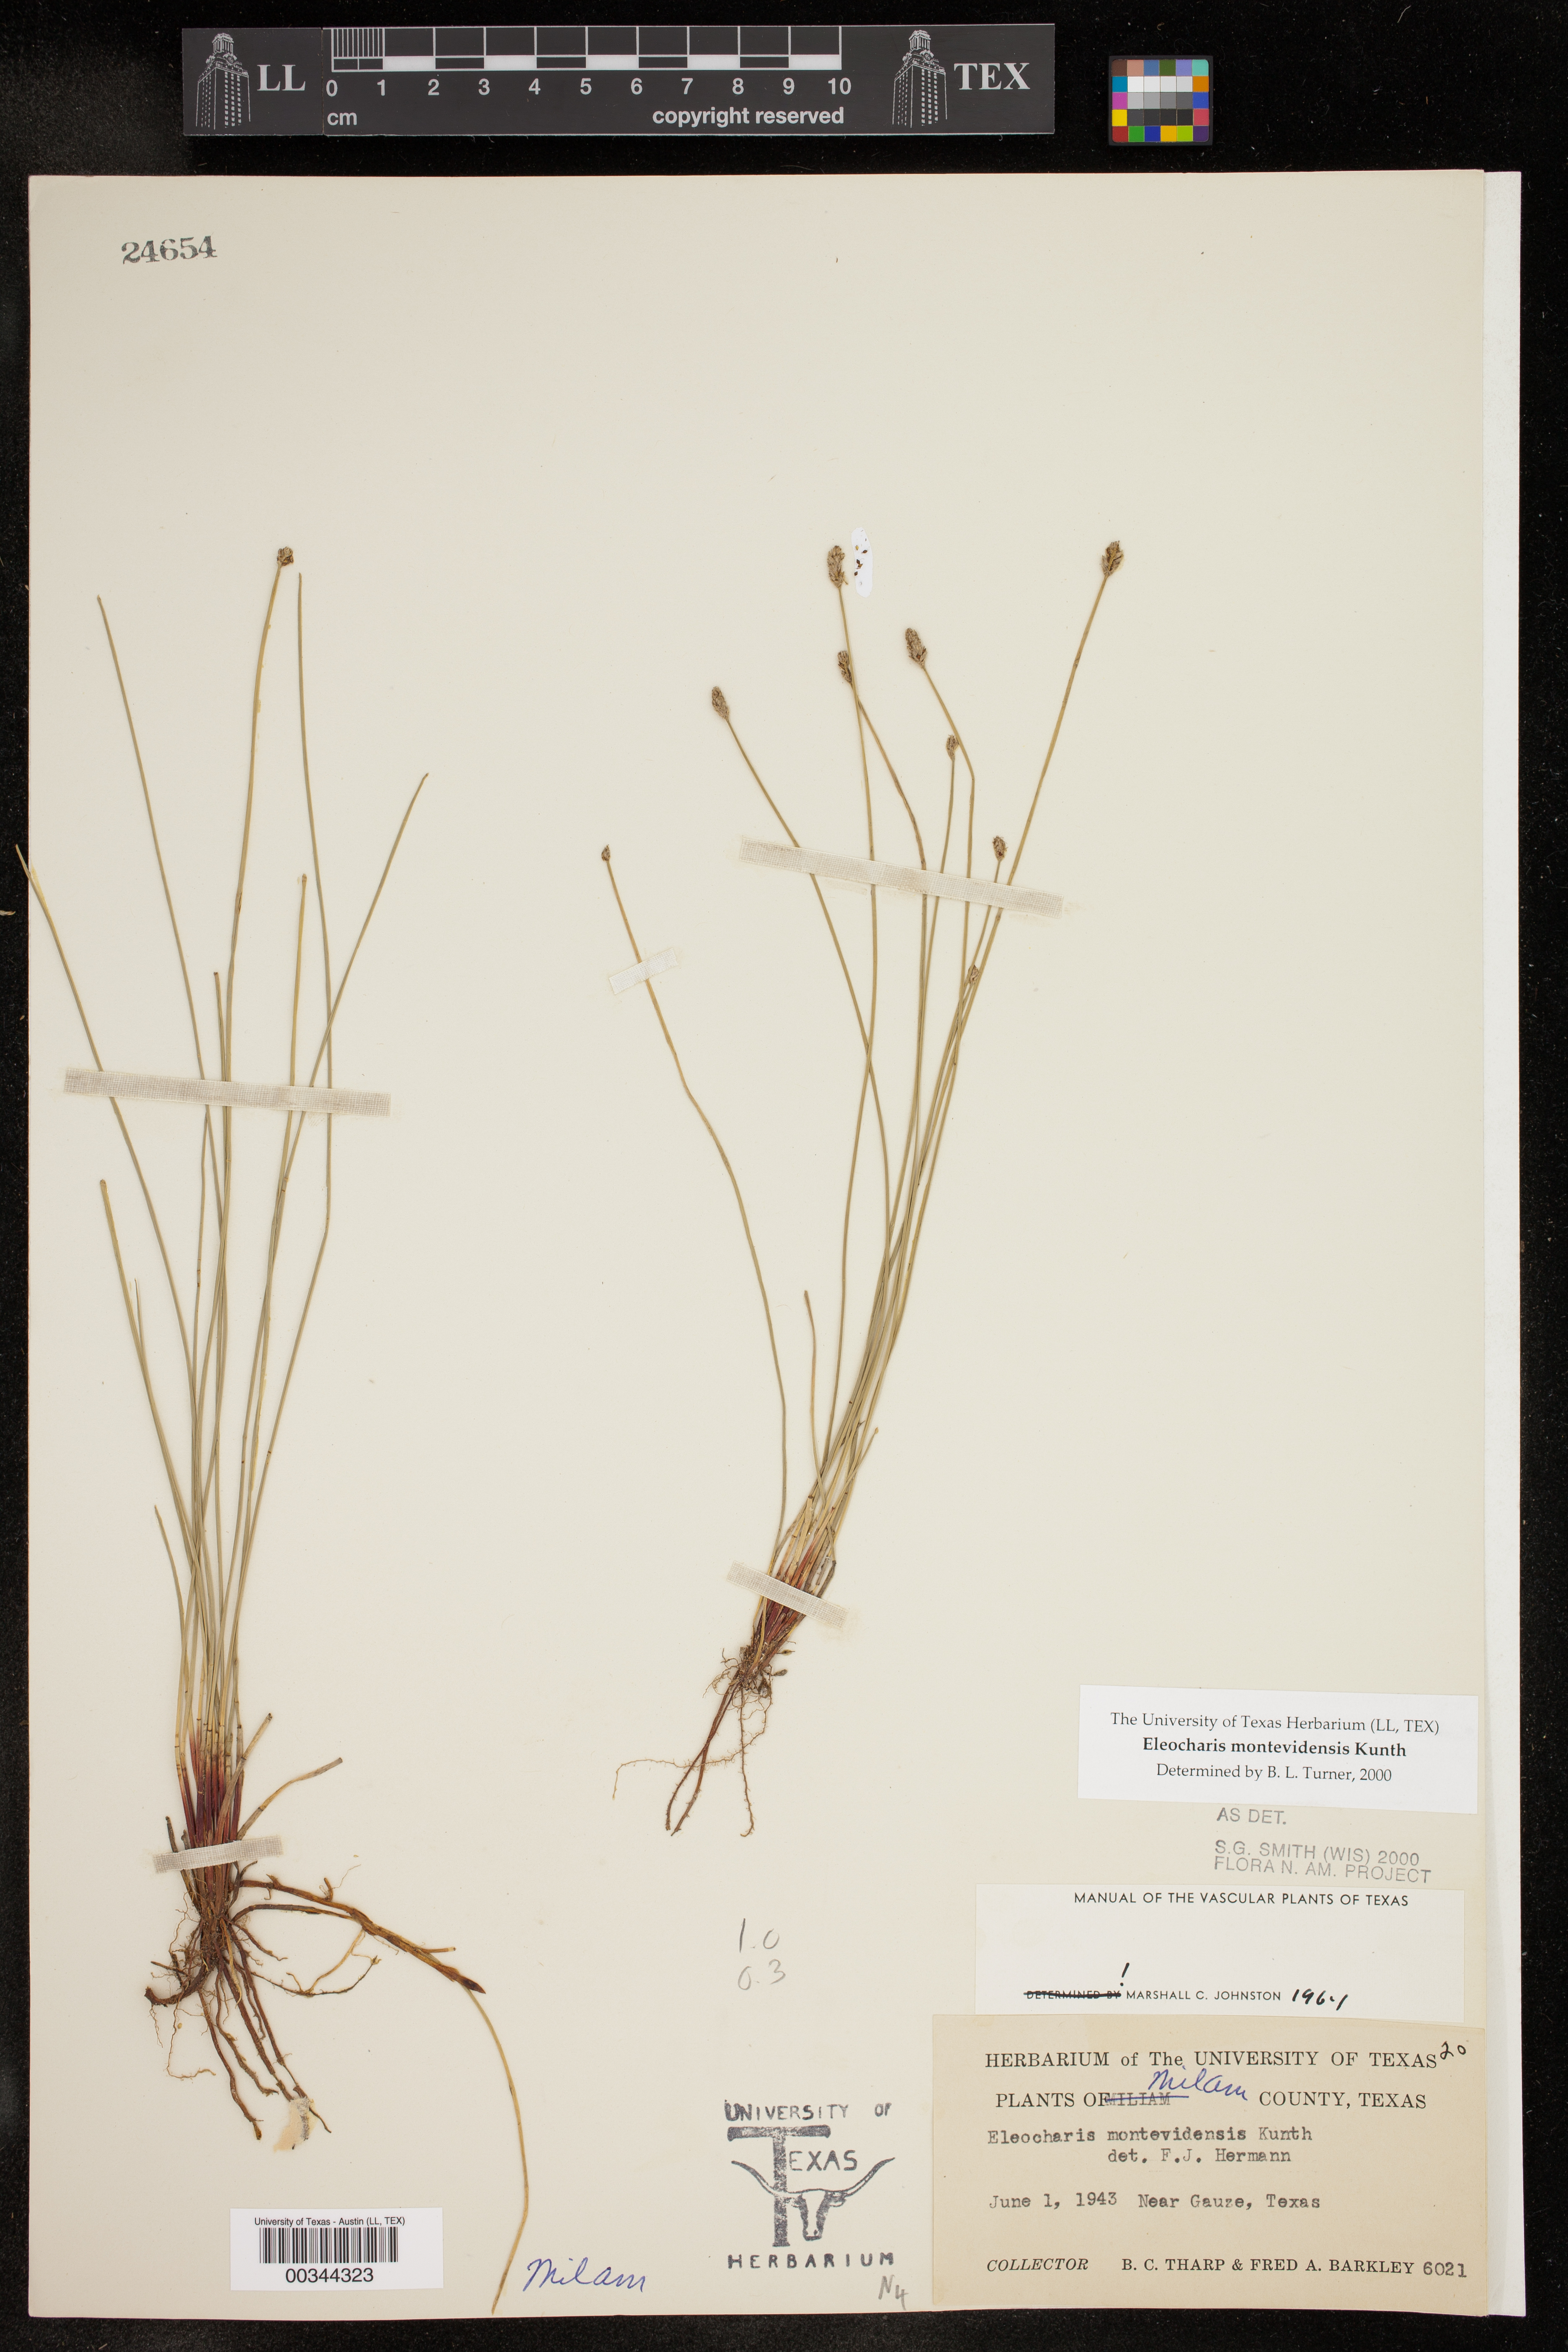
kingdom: Plantae
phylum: Tracheophyta
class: Liliopsida
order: Poales
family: Cyperaceae
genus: Eleocharis
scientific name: Eleocharis montevidensis
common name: Sand spike-rush
